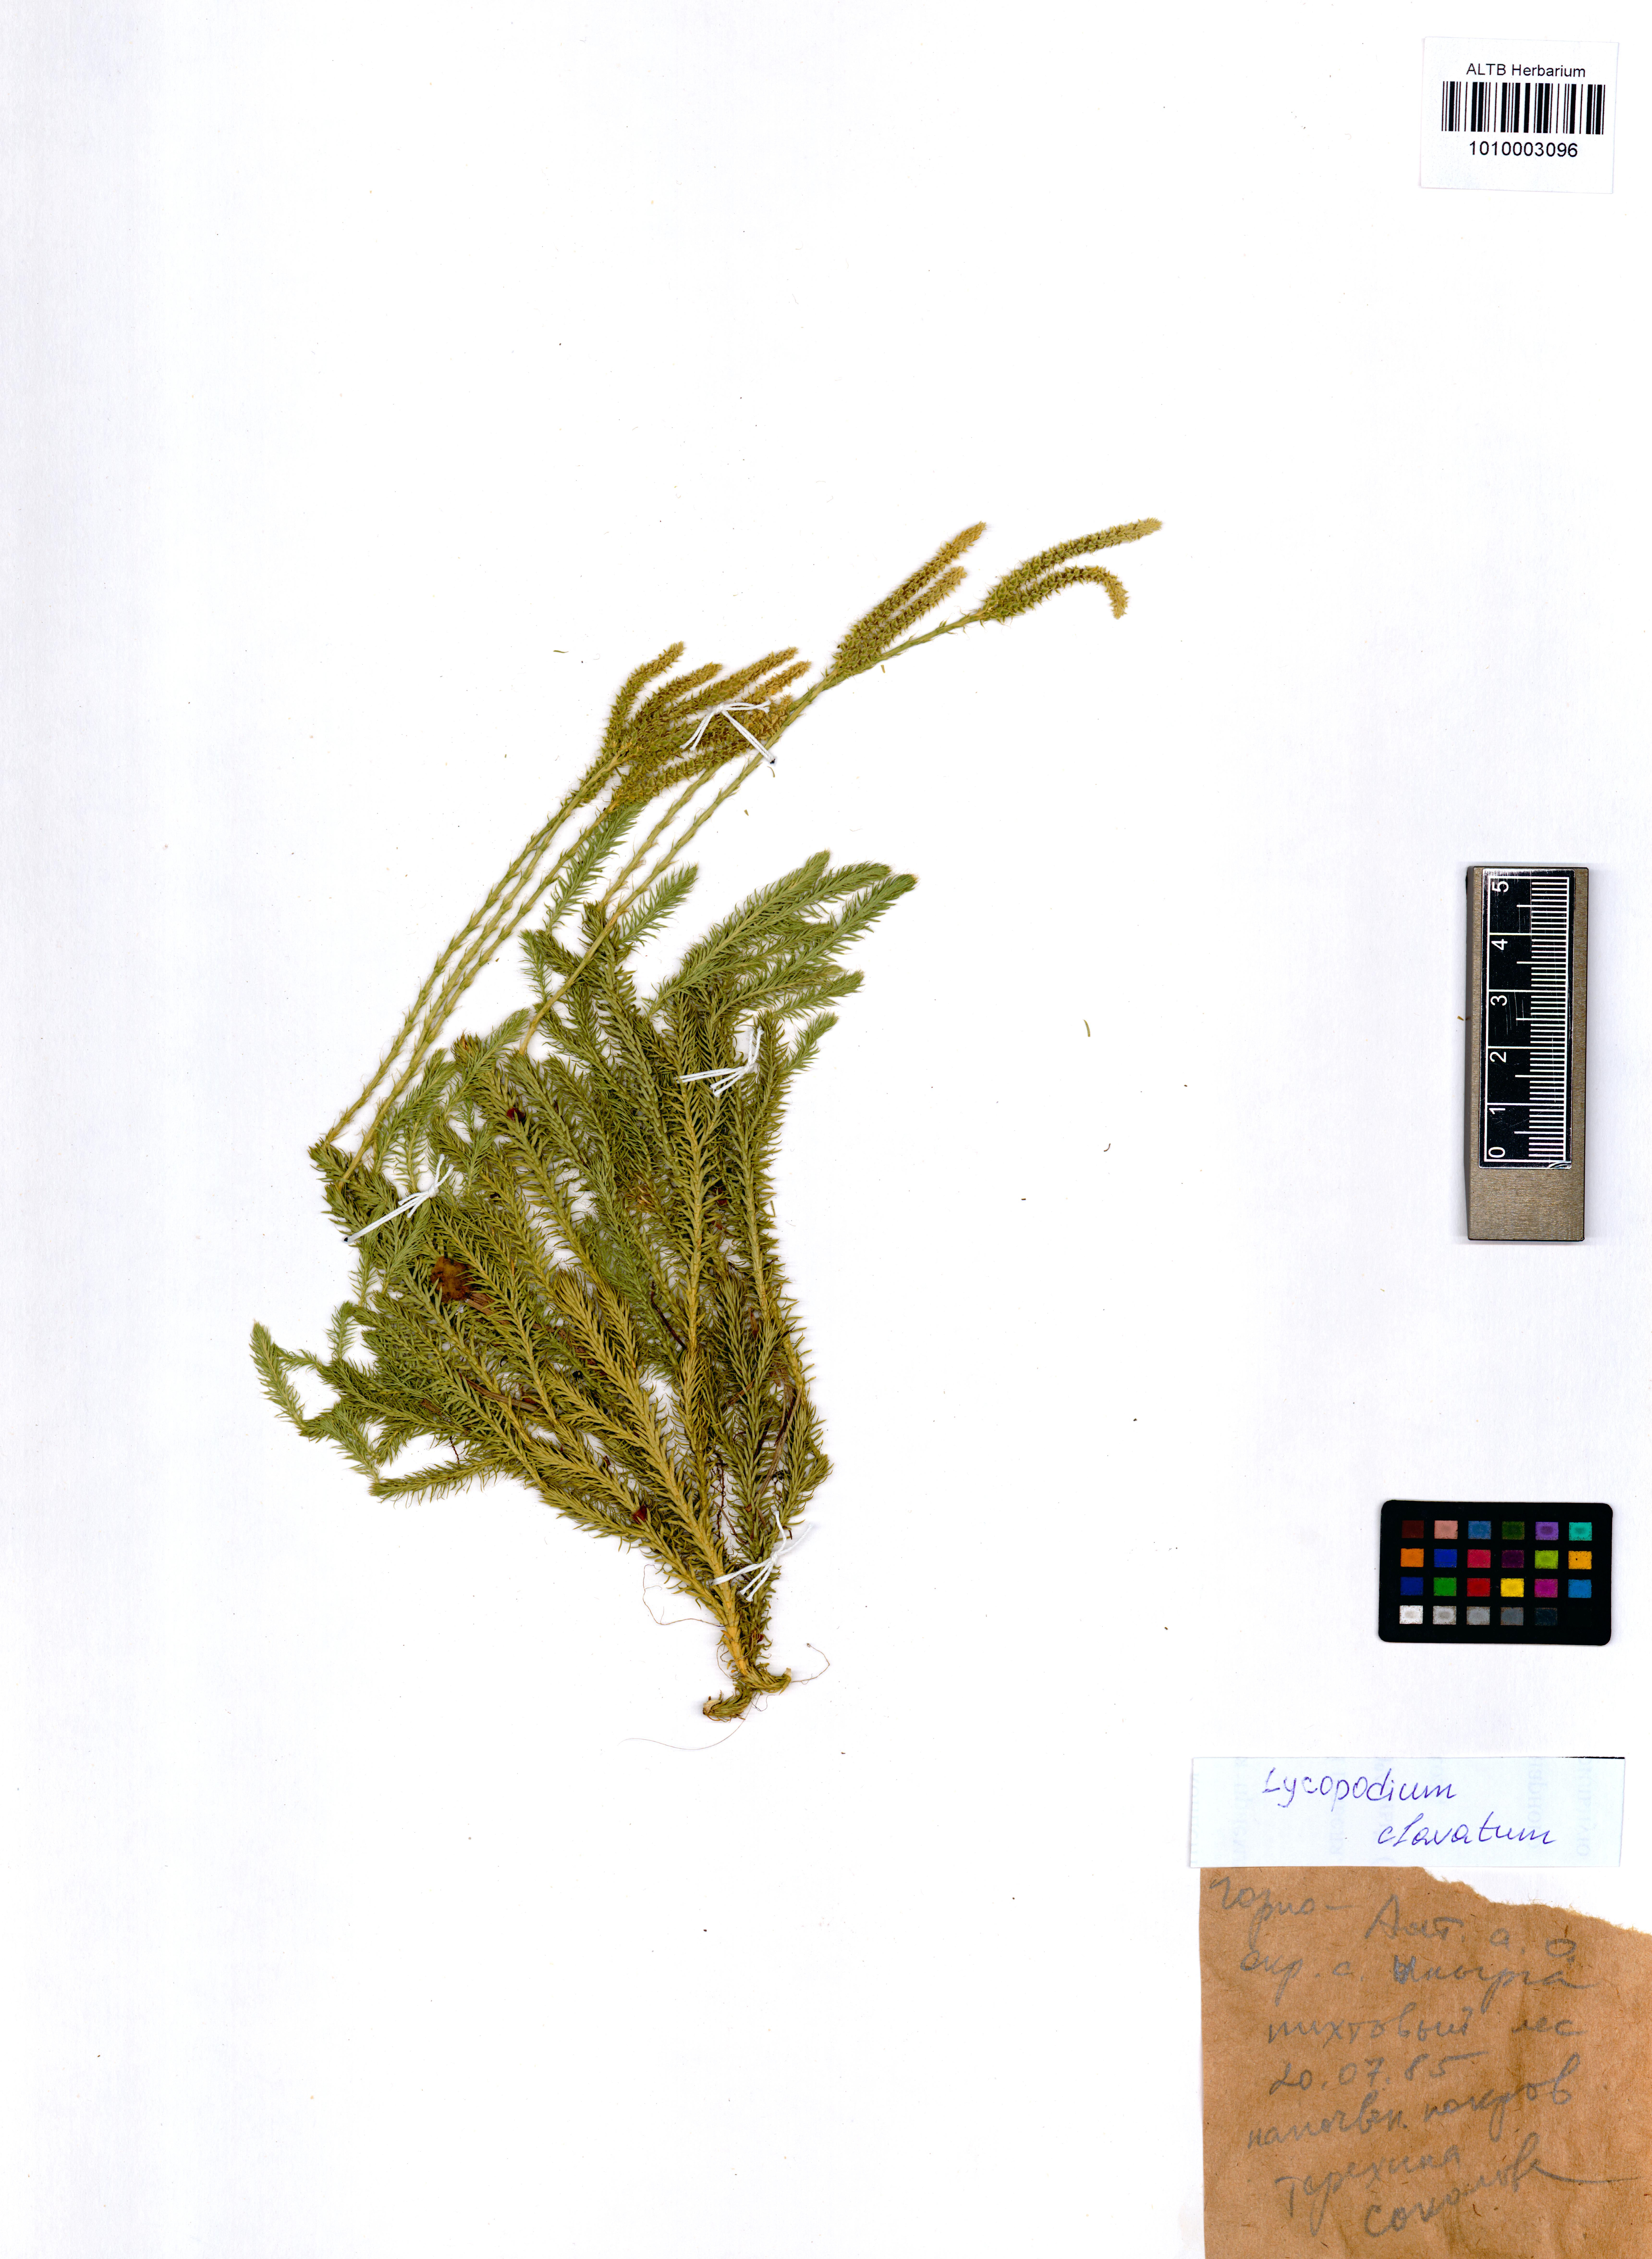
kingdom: Plantae
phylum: Tracheophyta
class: Lycopodiopsida
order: Lycopodiales
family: Lycopodiaceae
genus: Lycopodium
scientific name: Lycopodium clavatum
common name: Stag's-horn clubmoss
